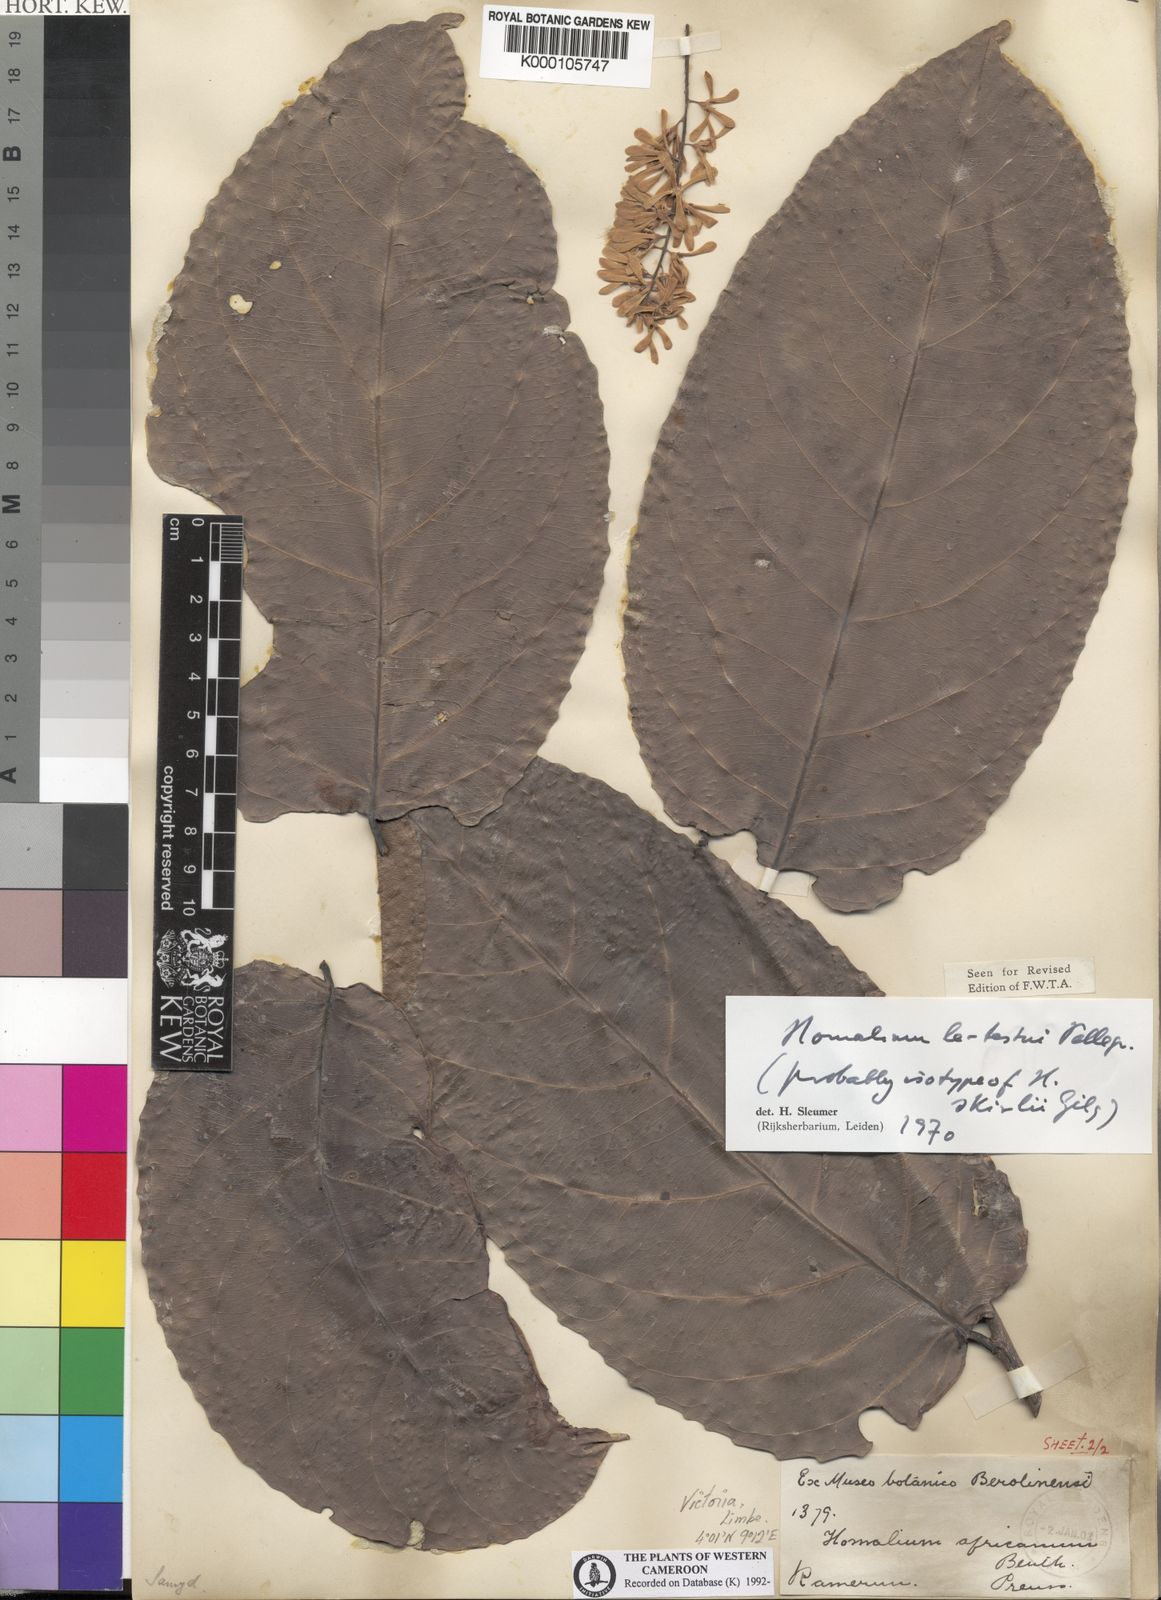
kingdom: Plantae
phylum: Tracheophyta
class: Magnoliopsida
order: Malpighiales
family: Salicaceae
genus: Homalium
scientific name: Homalium letestui
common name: African homalium
